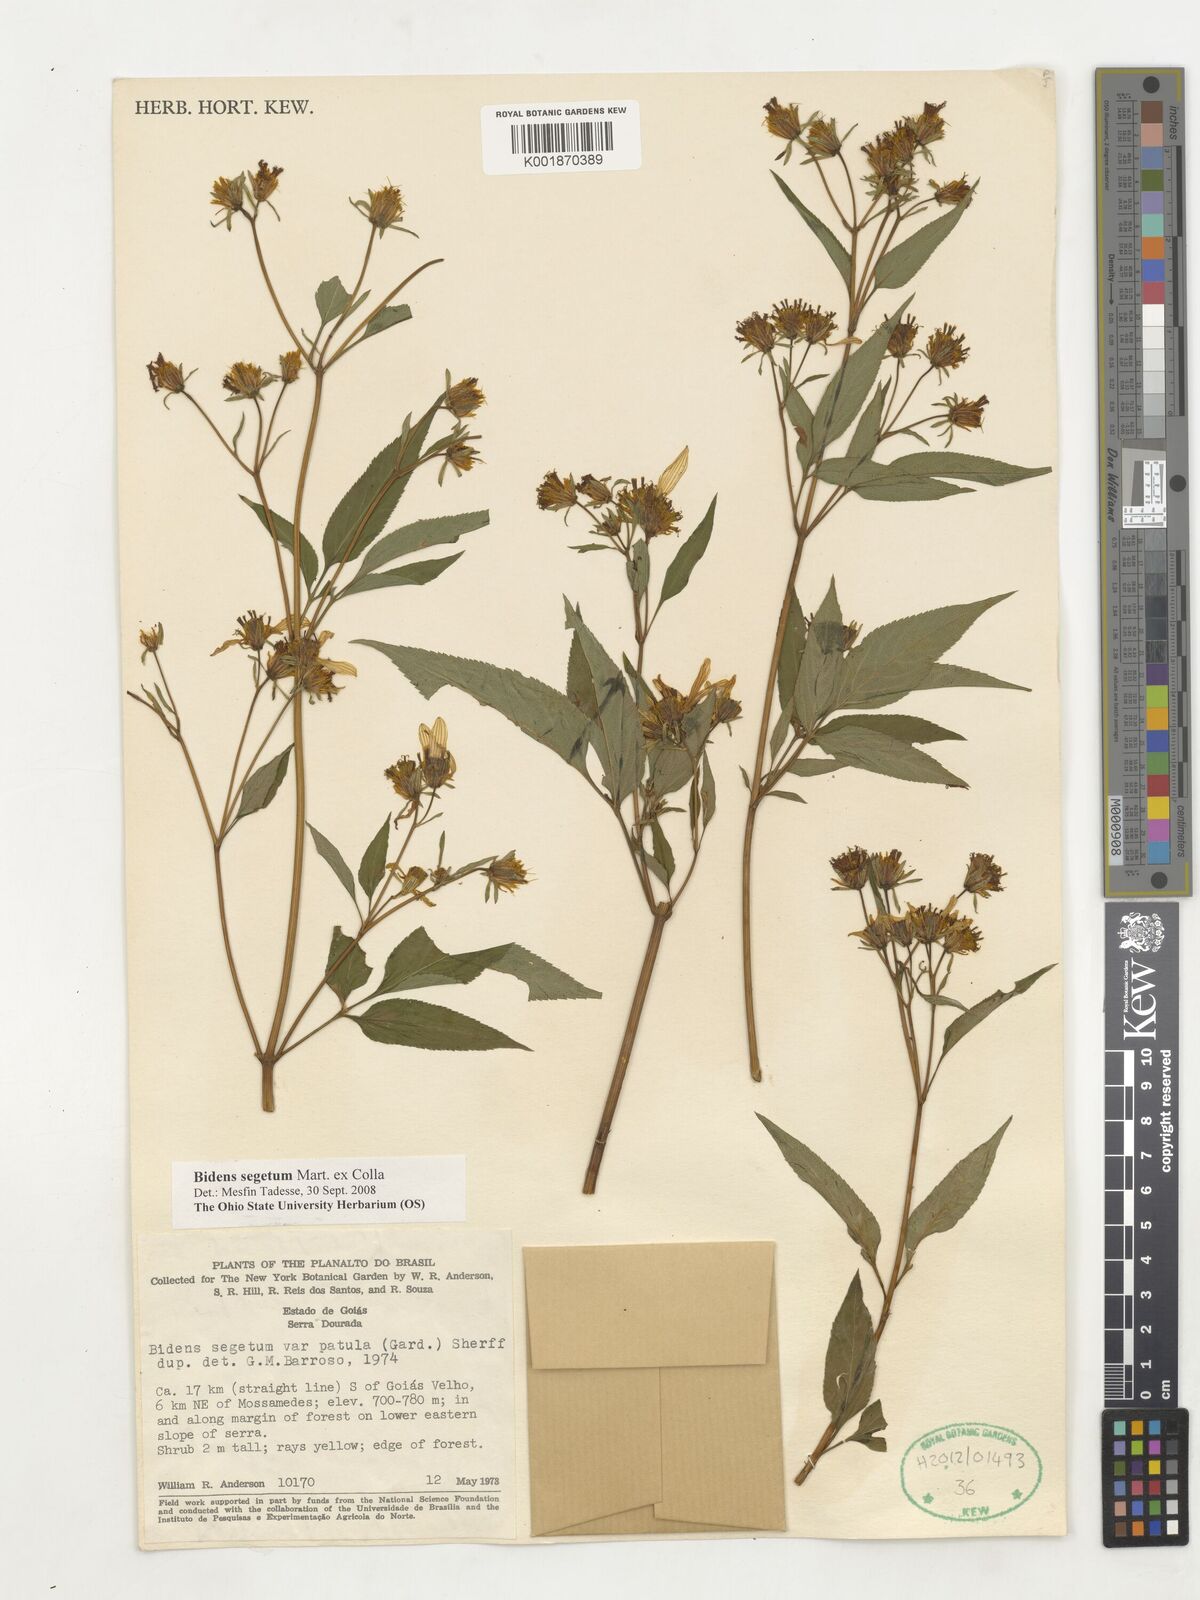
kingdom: Plantae
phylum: Tracheophyta
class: Magnoliopsida
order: Asterales
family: Asteraceae
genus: Bidens
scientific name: Bidens segetum
